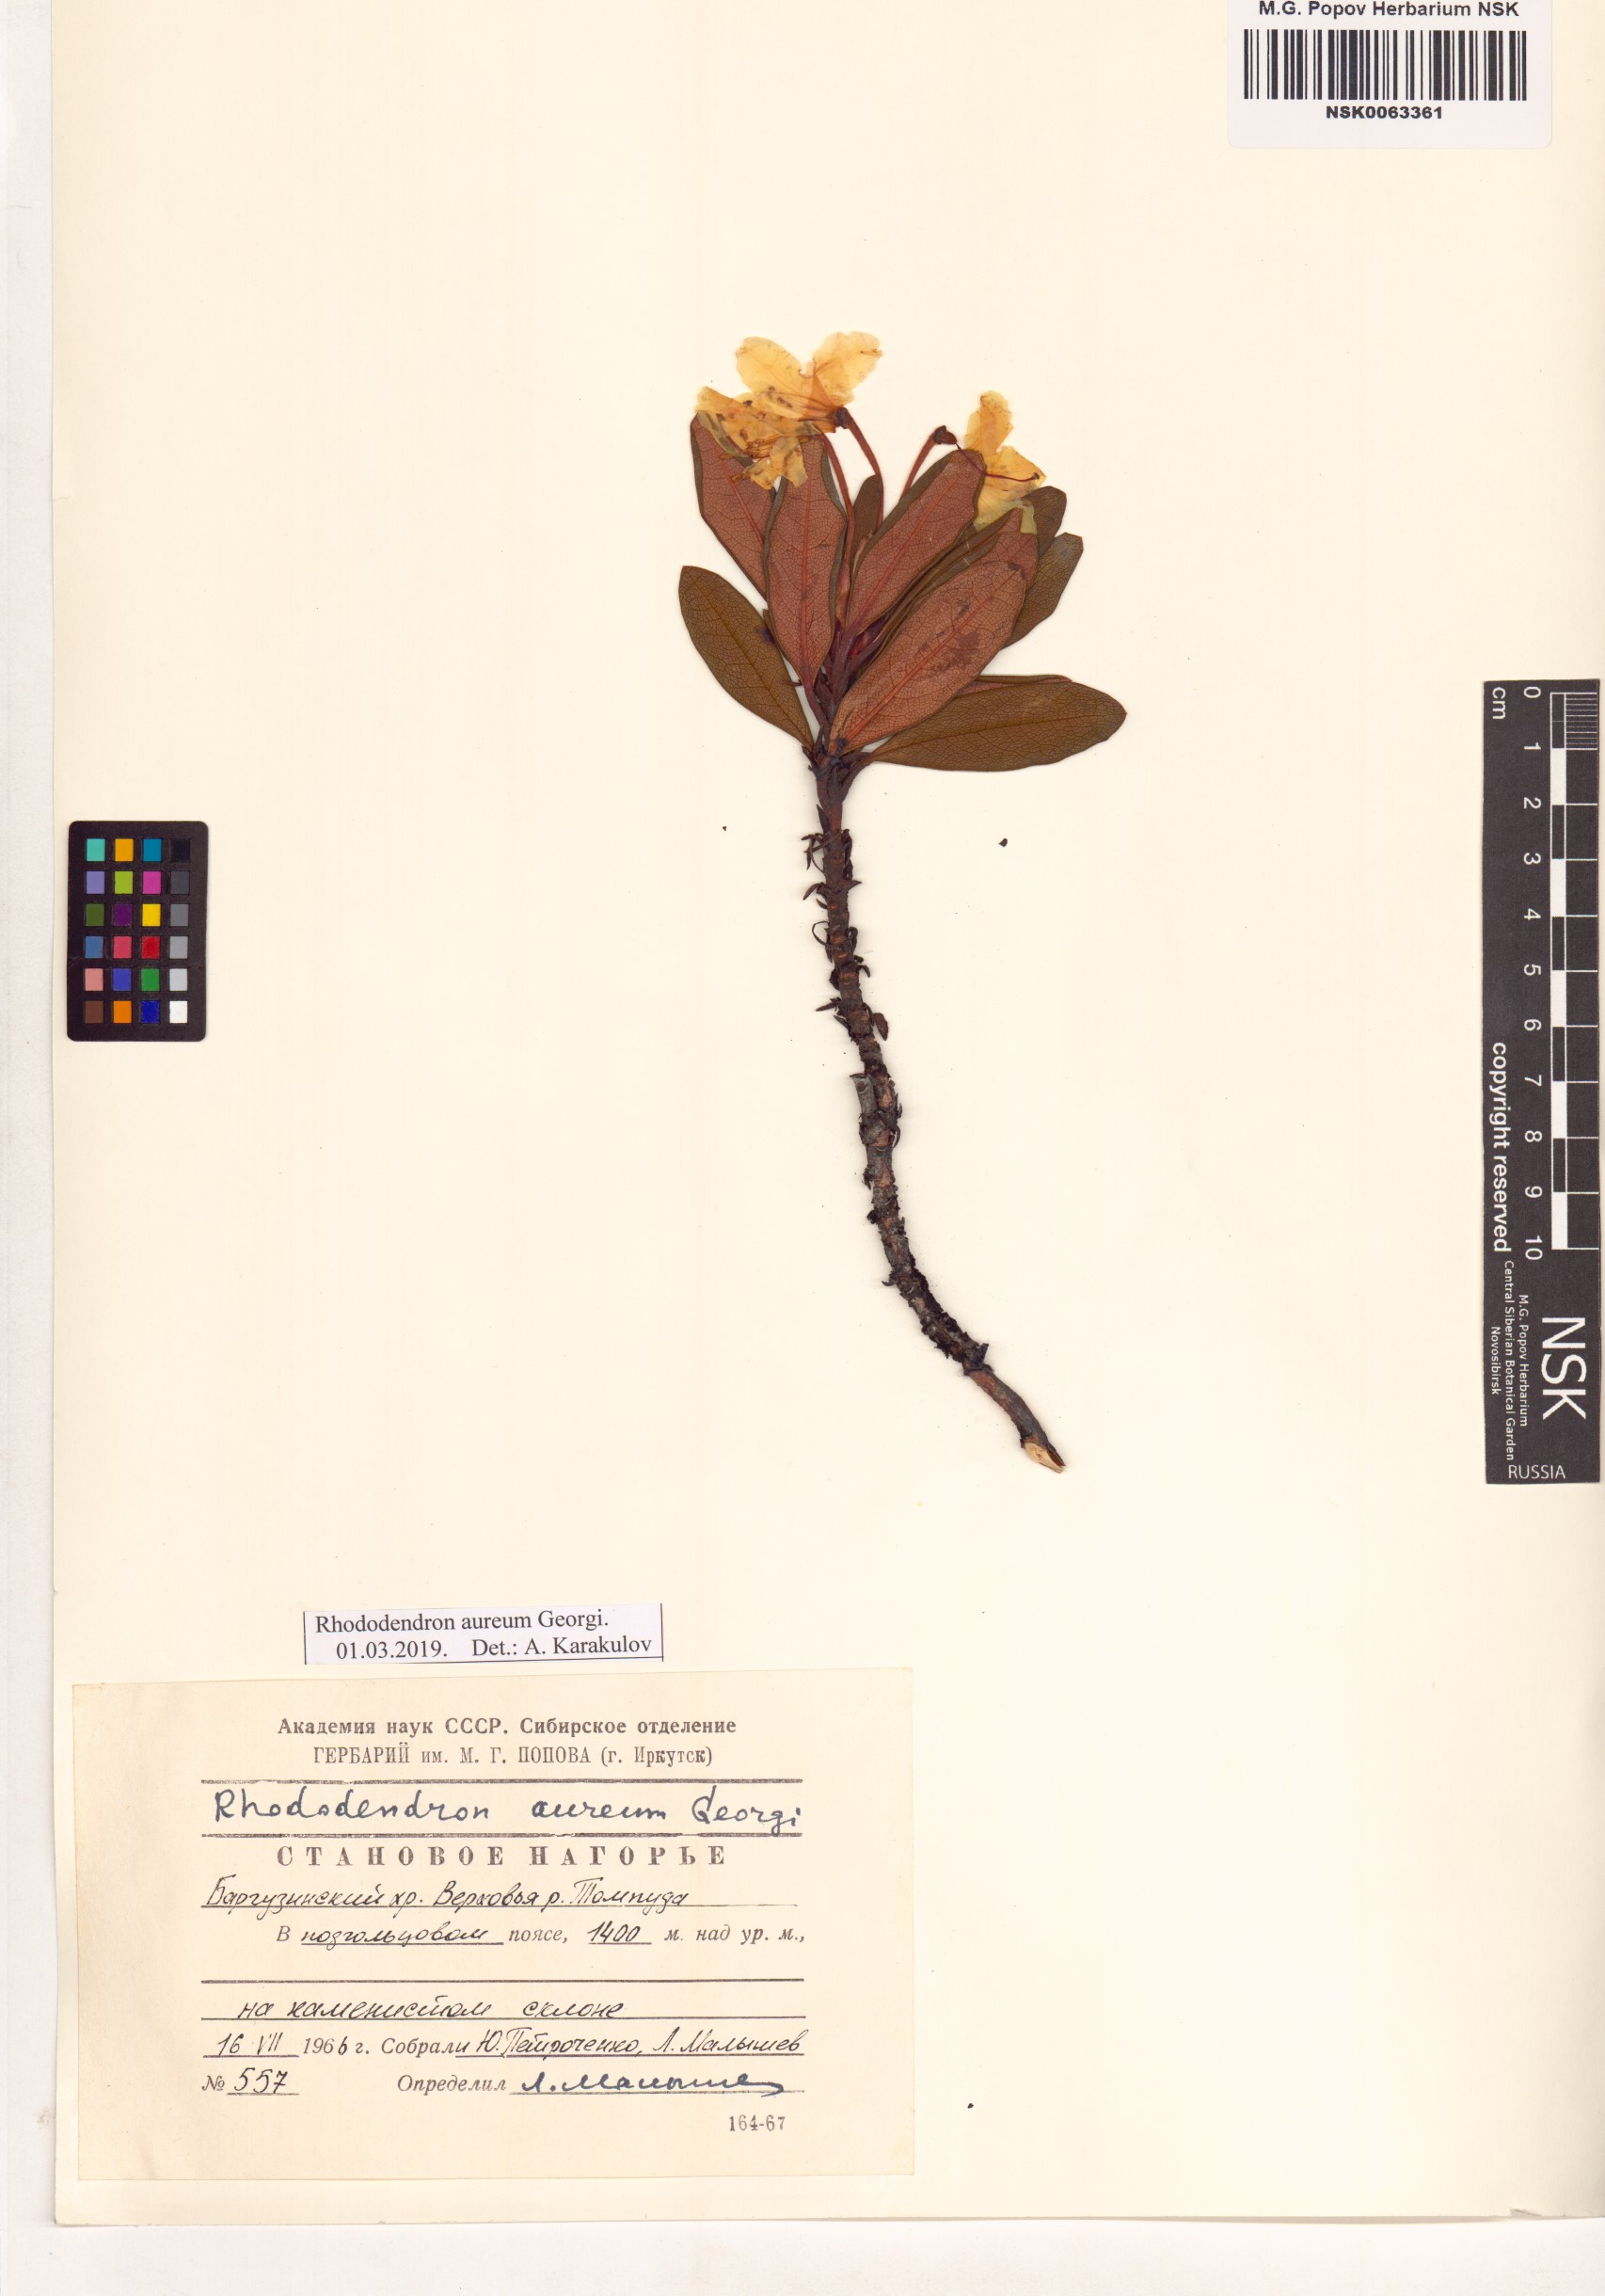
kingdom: Plantae
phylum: Tracheophyta
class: Magnoliopsida
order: Ericales
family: Ericaceae
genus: Rhododendron
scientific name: Rhododendron aureum
